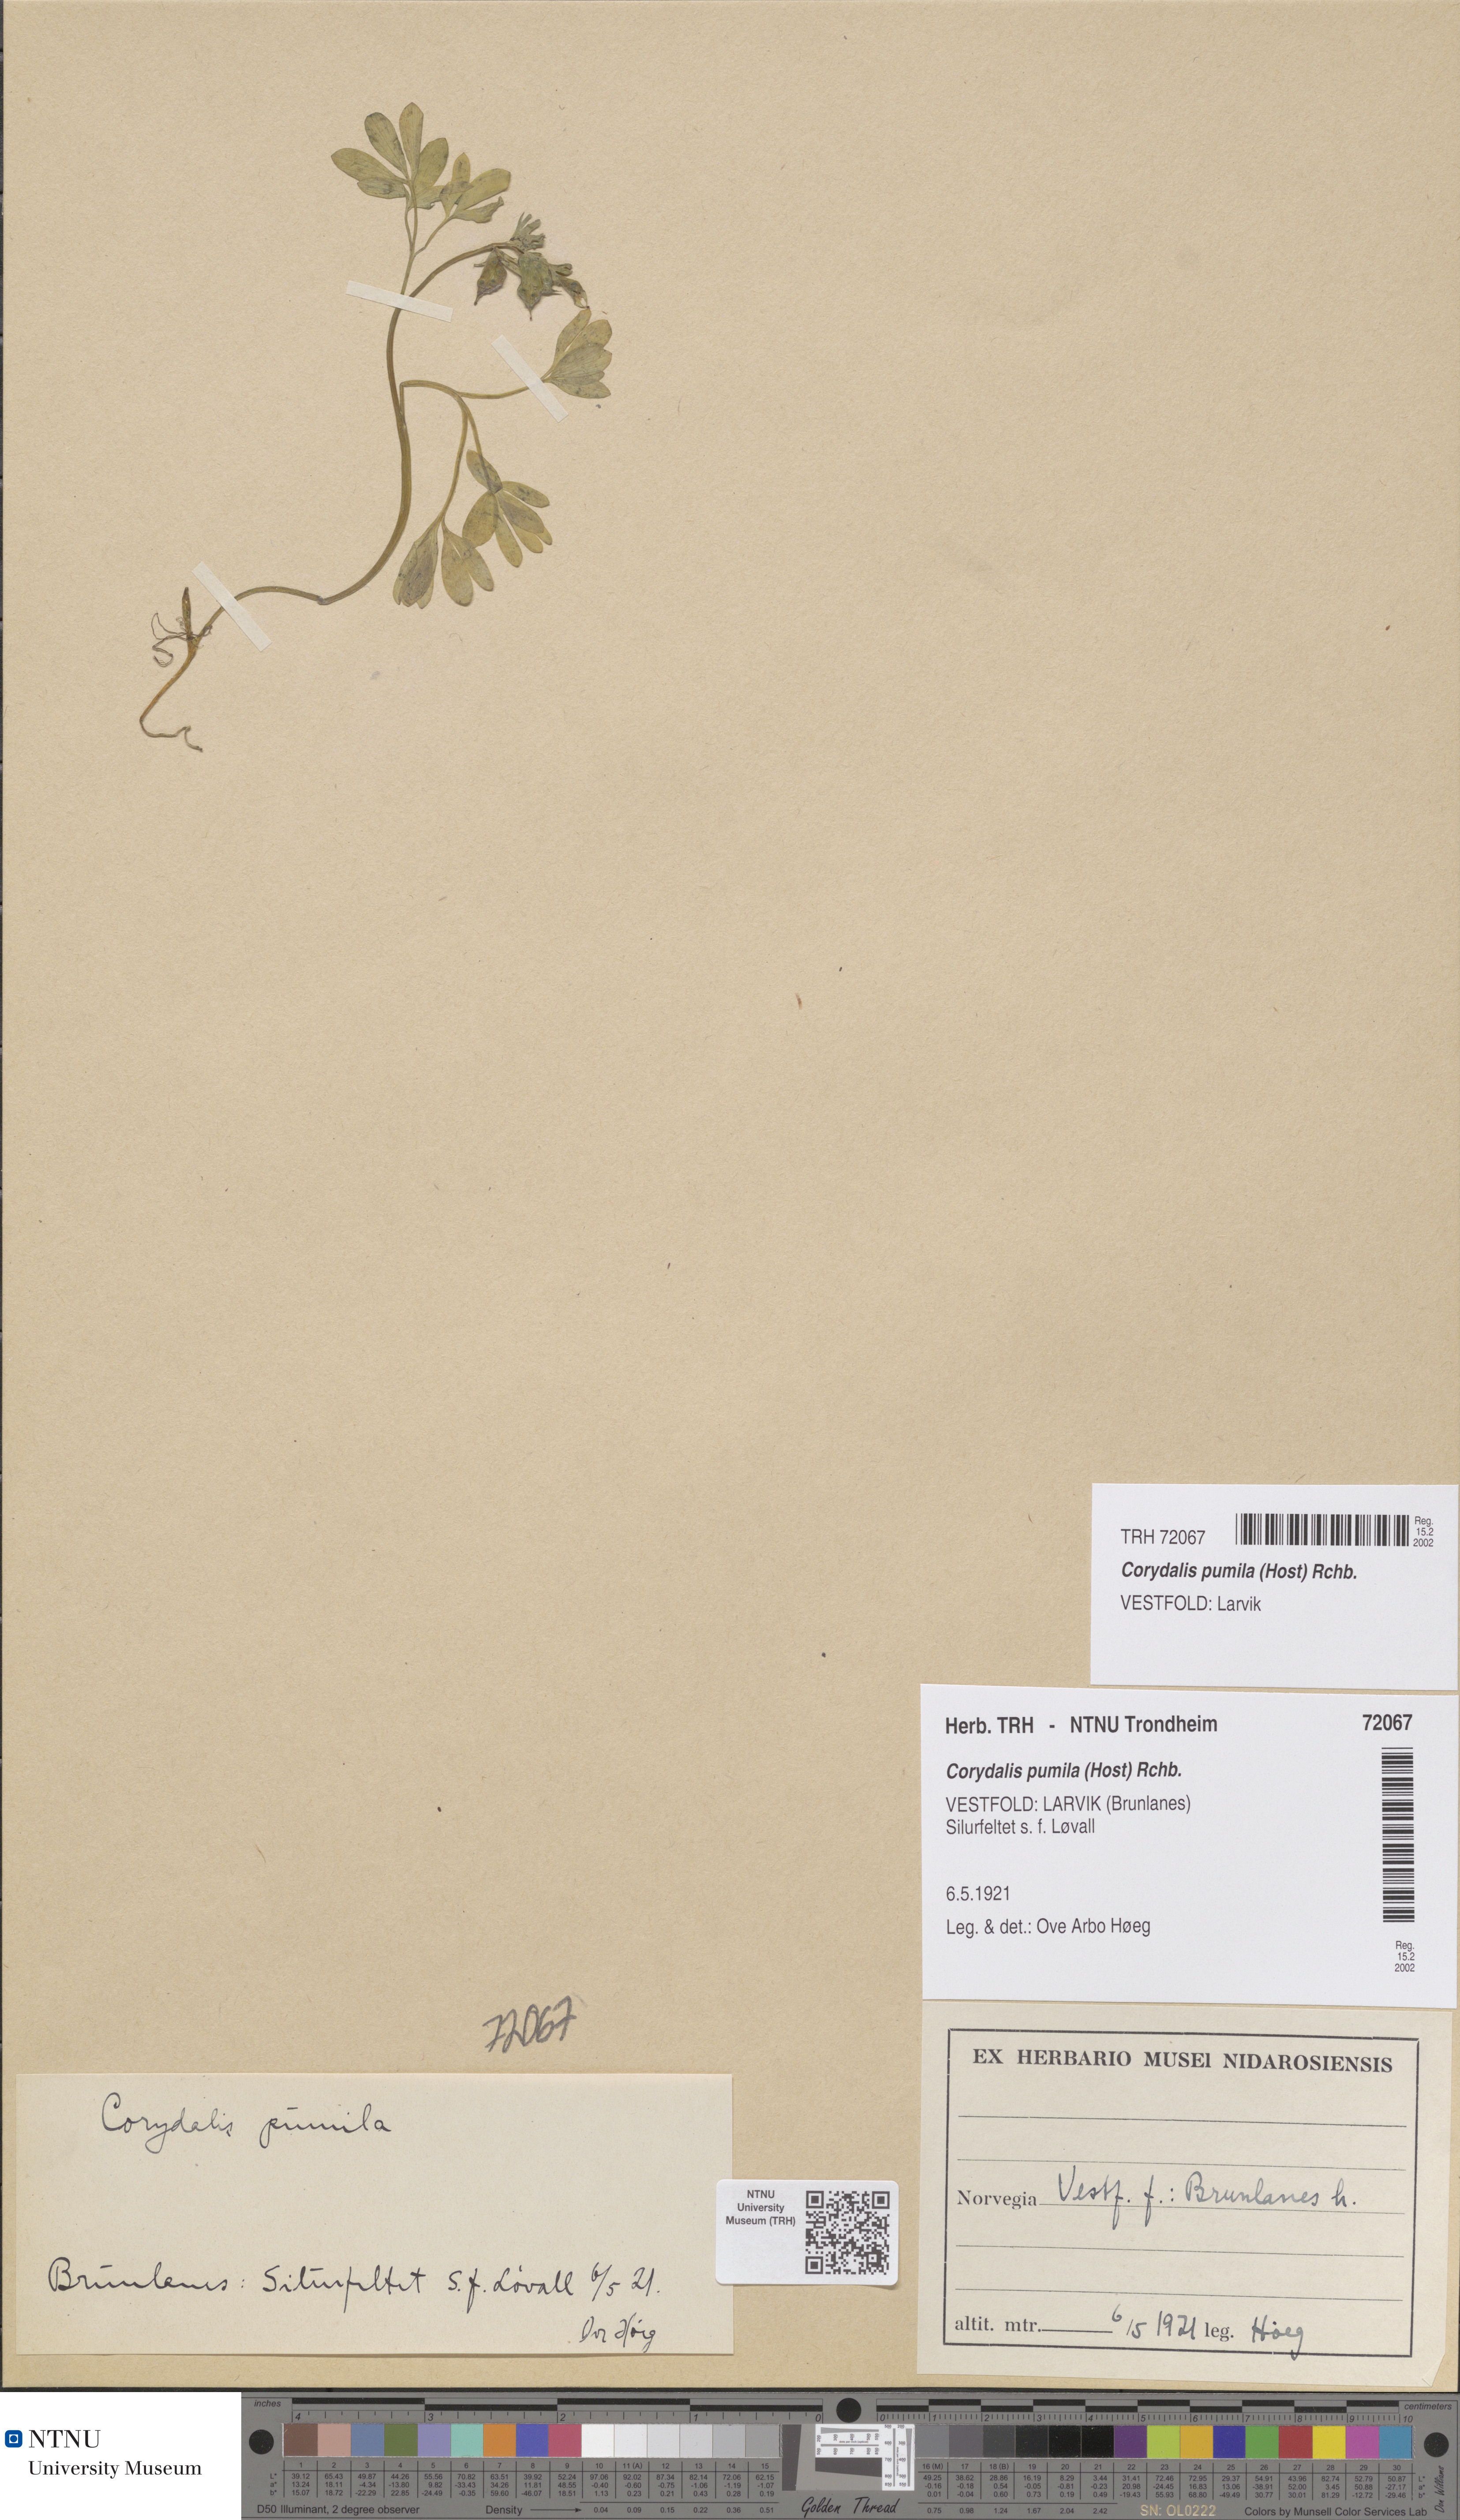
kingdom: Plantae
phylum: Tracheophyta
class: Magnoliopsida
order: Ranunculales
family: Papaveraceae
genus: Corydalis
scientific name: Corydalis pumila
